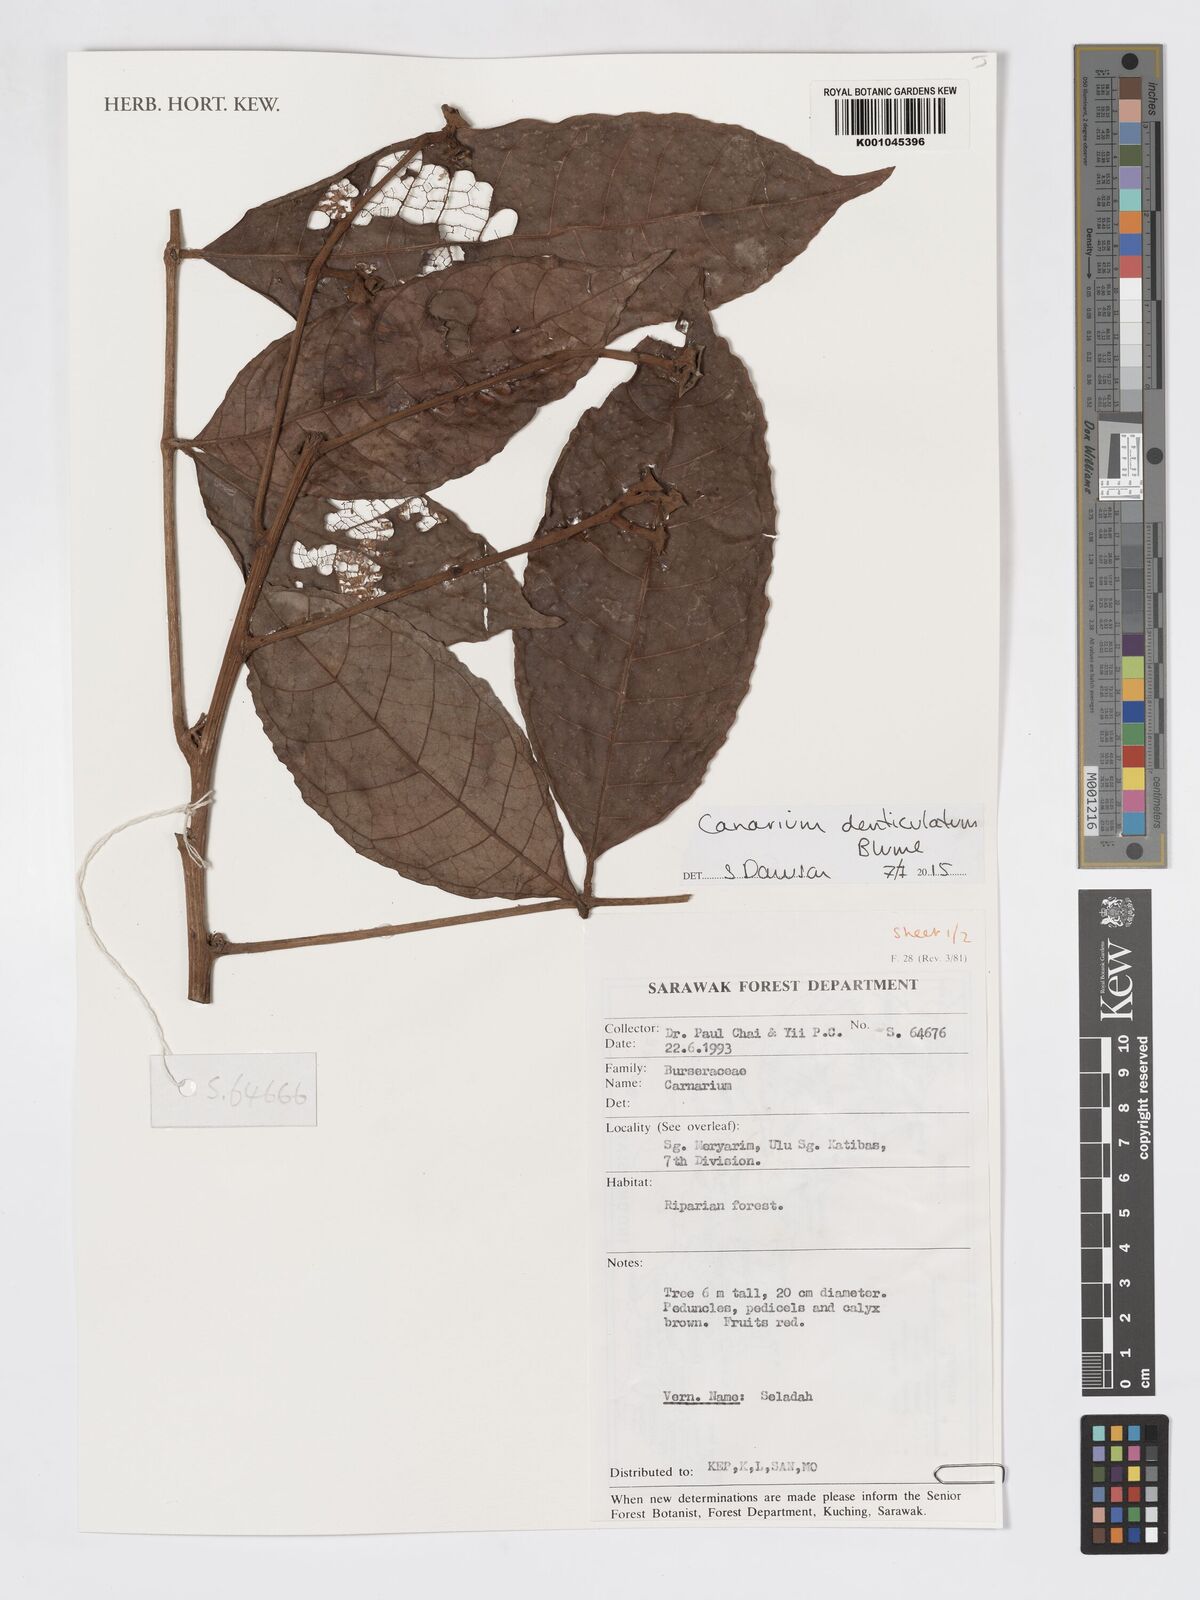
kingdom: Plantae
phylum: Tracheophyta
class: Magnoliopsida
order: Sapindales
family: Burseraceae
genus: Canarium
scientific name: Canarium denticulatum
